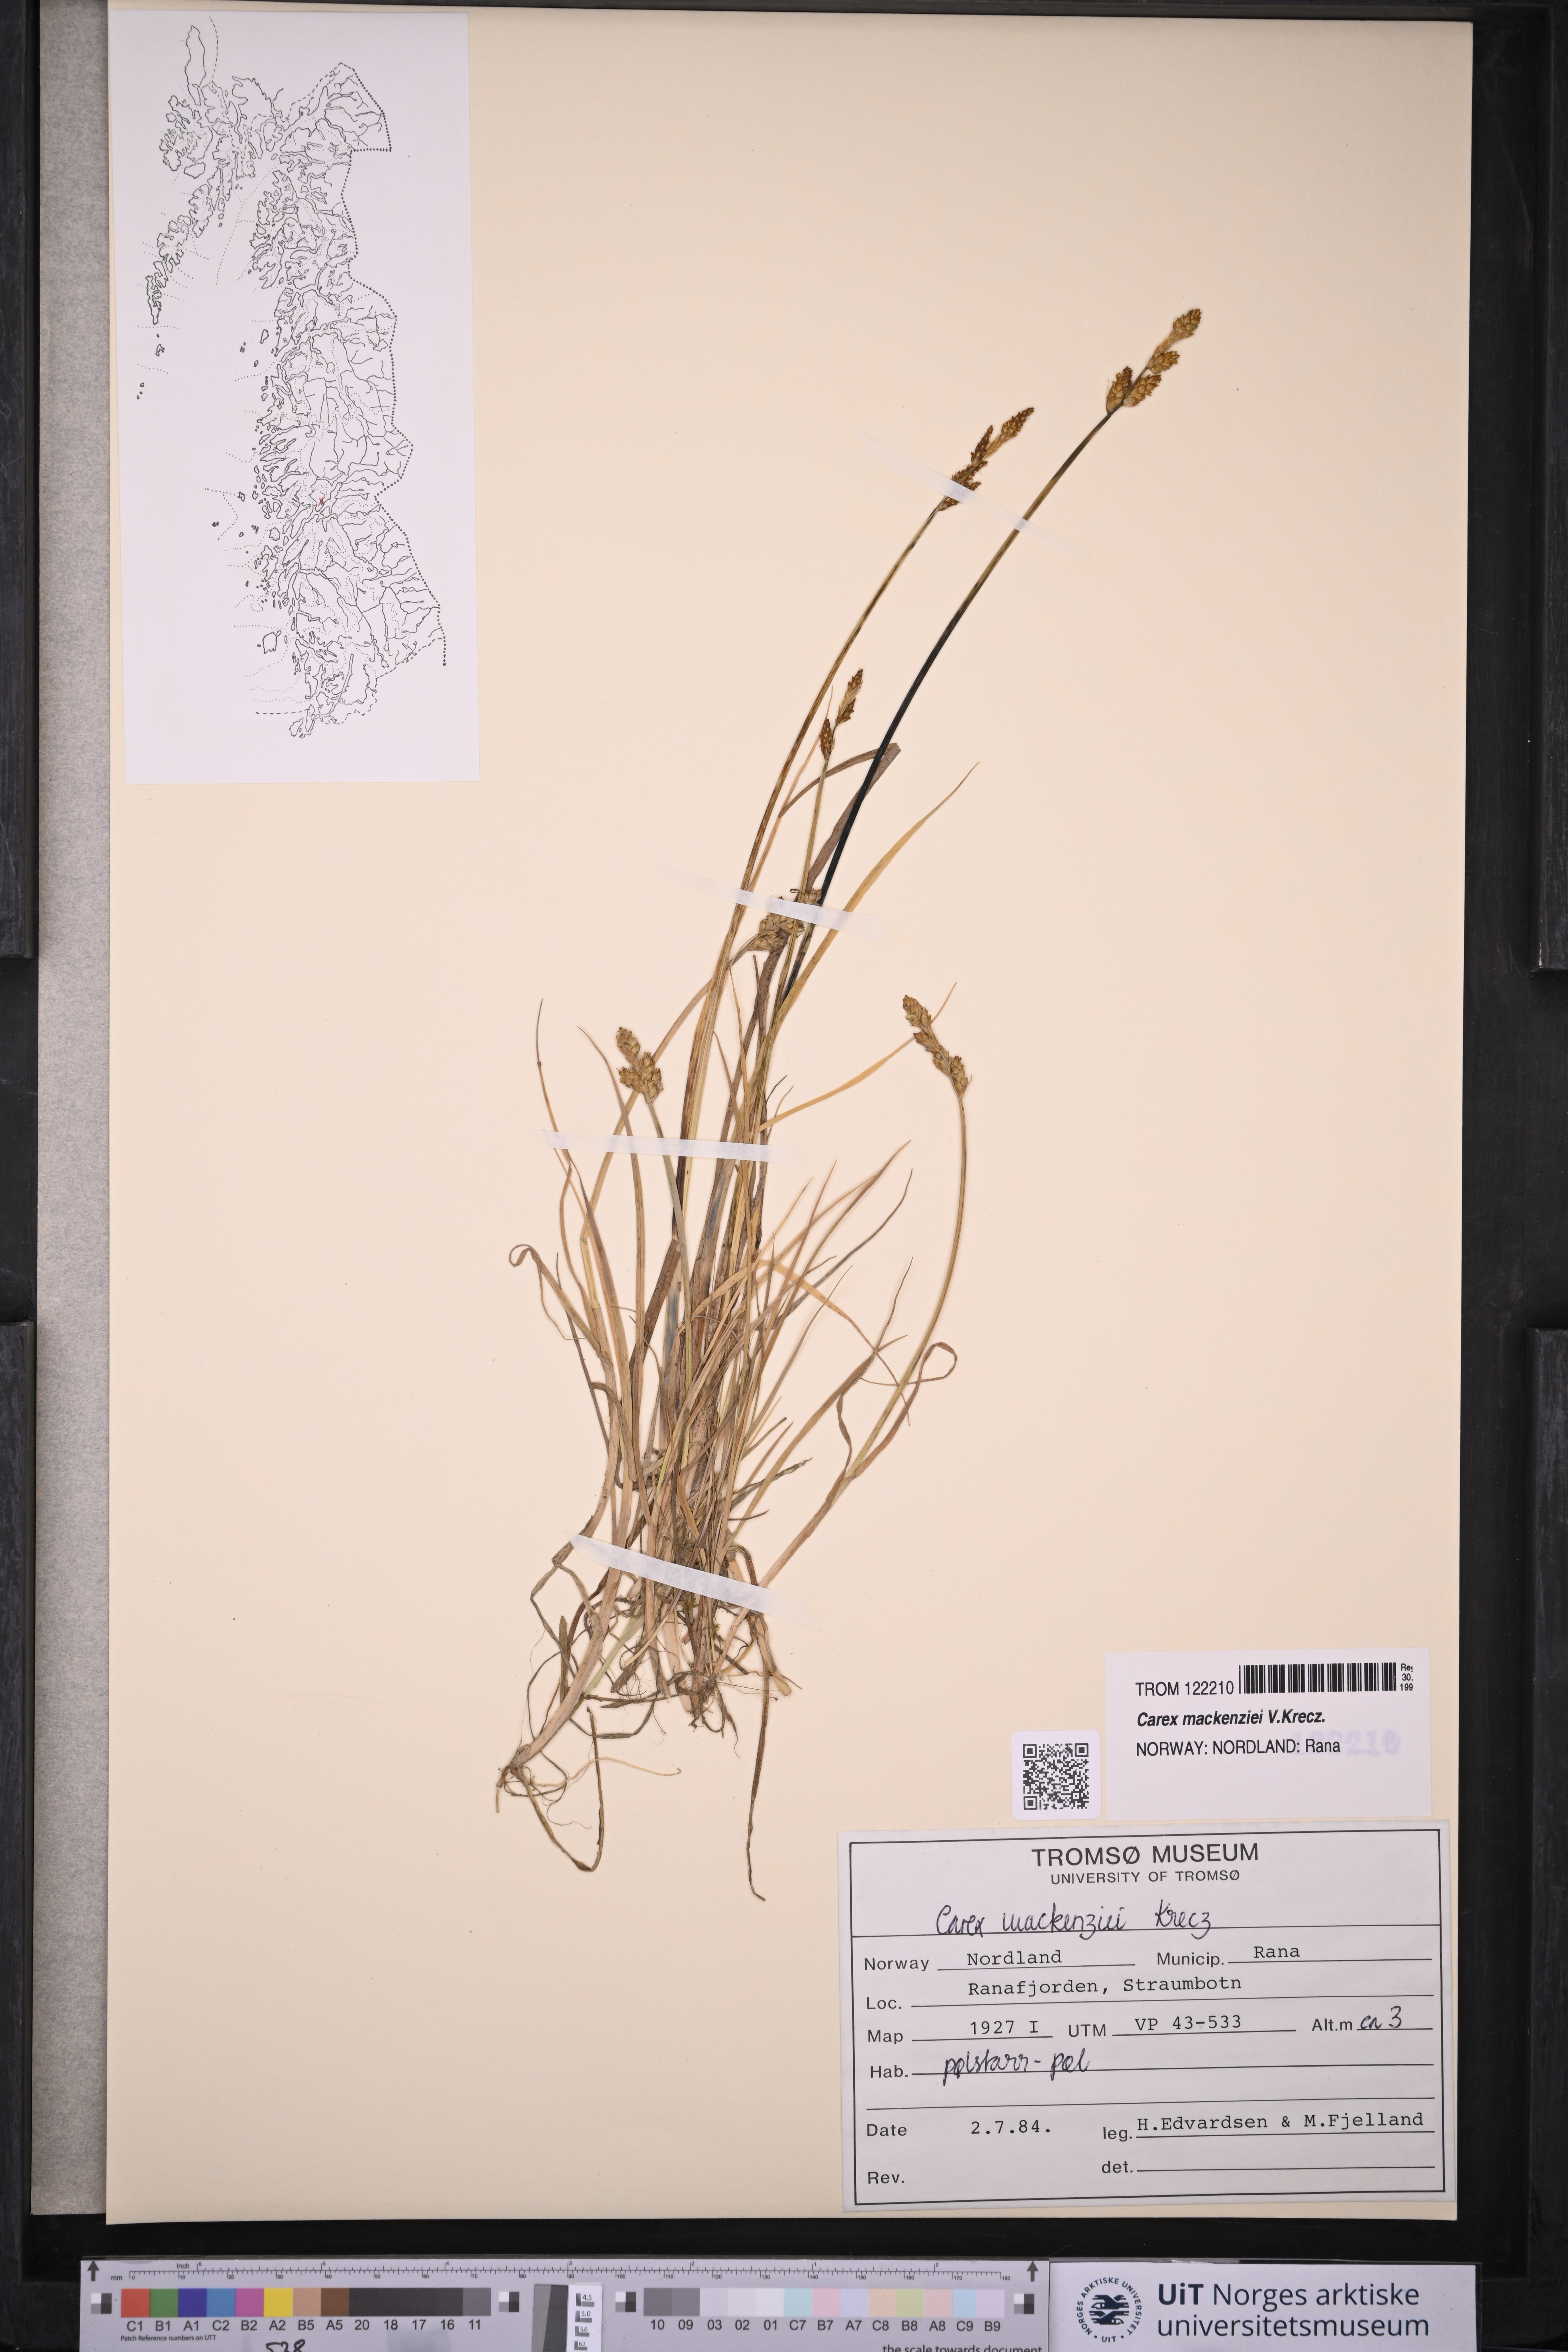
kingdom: Plantae
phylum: Tracheophyta
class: Liliopsida
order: Poales
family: Cyperaceae
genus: Carex
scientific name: Carex mackenziei
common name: Mackenzie's sedge
